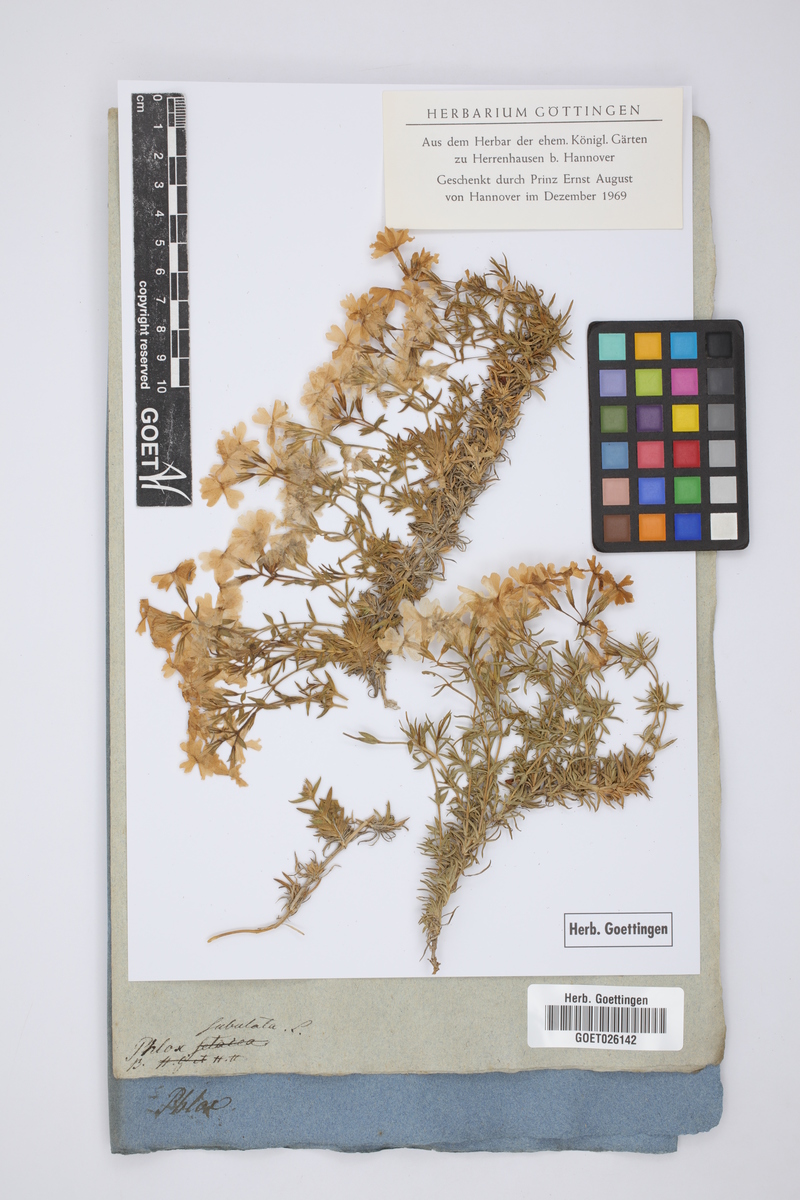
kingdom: Plantae
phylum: Tracheophyta
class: Magnoliopsida
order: Ericales
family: Polemoniaceae
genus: Phlox
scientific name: Phlox subulata
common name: Moss phlox
